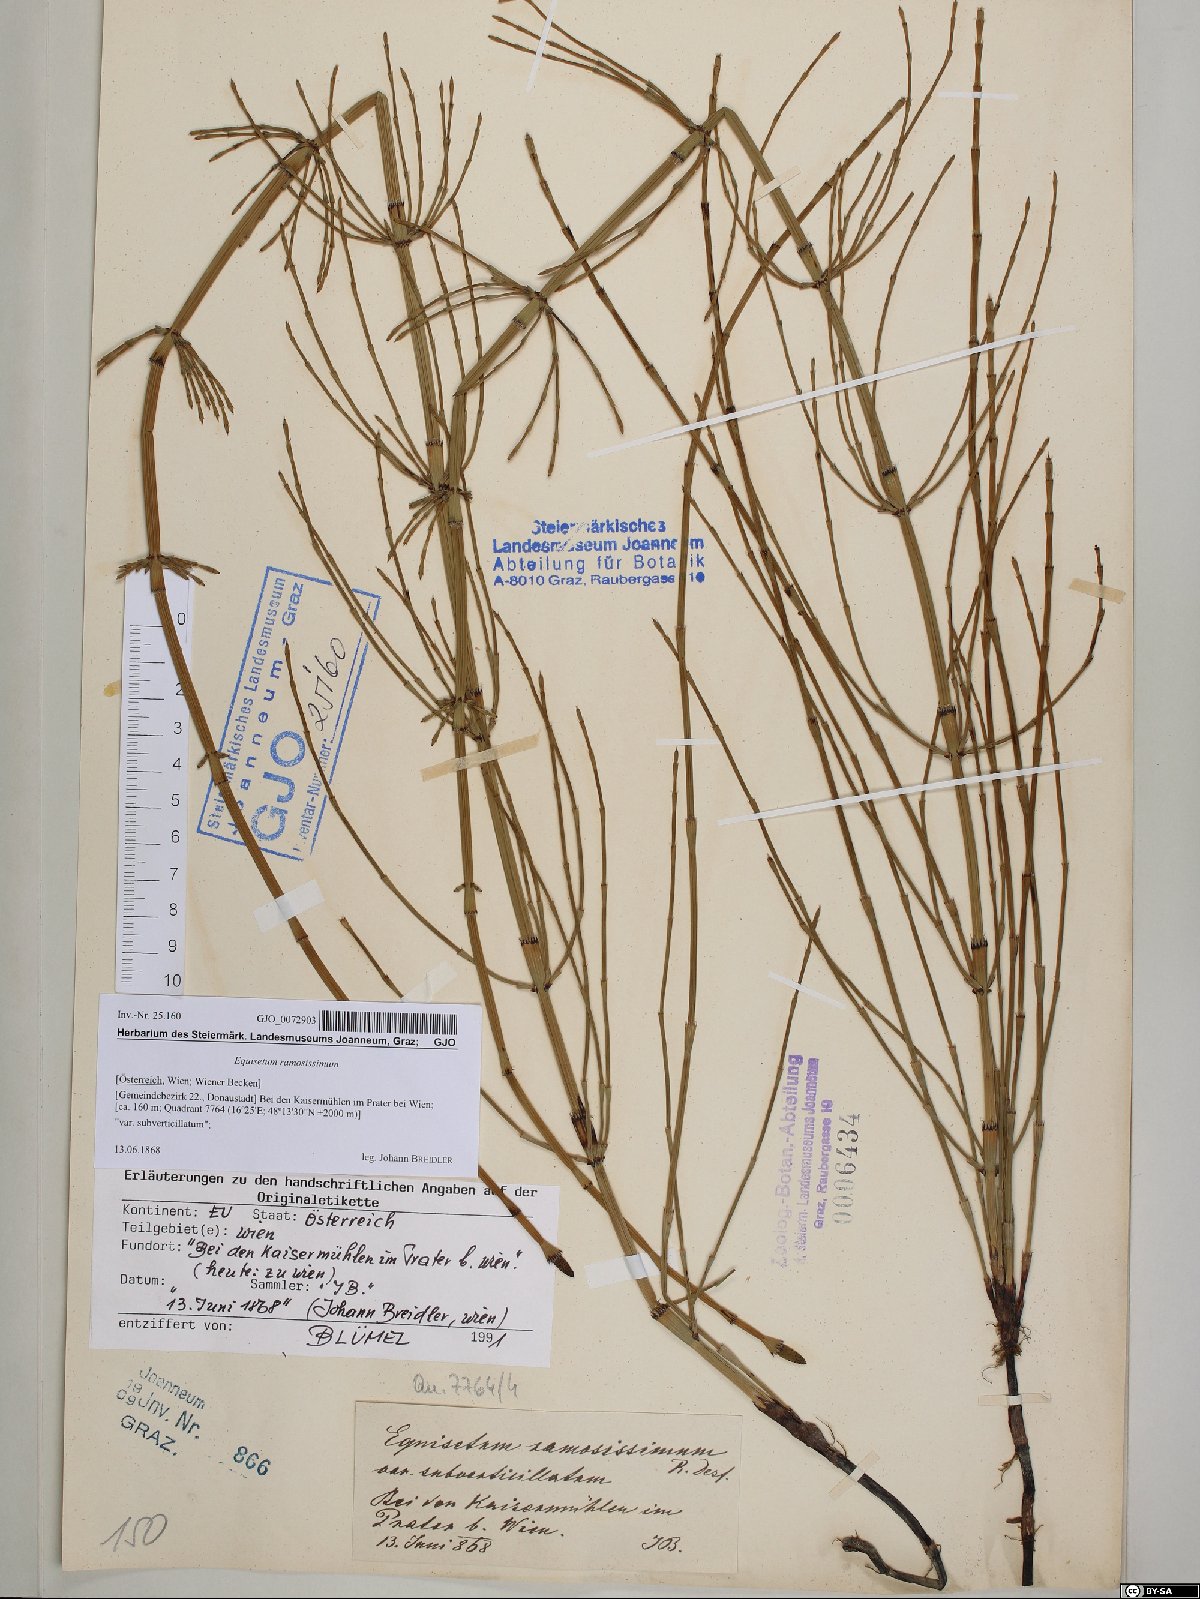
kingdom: Plantae
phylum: Tracheophyta
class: Polypodiopsida
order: Equisetales
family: Equisetaceae
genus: Equisetum
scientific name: Equisetum ramosissimum
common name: Branched horsetail
